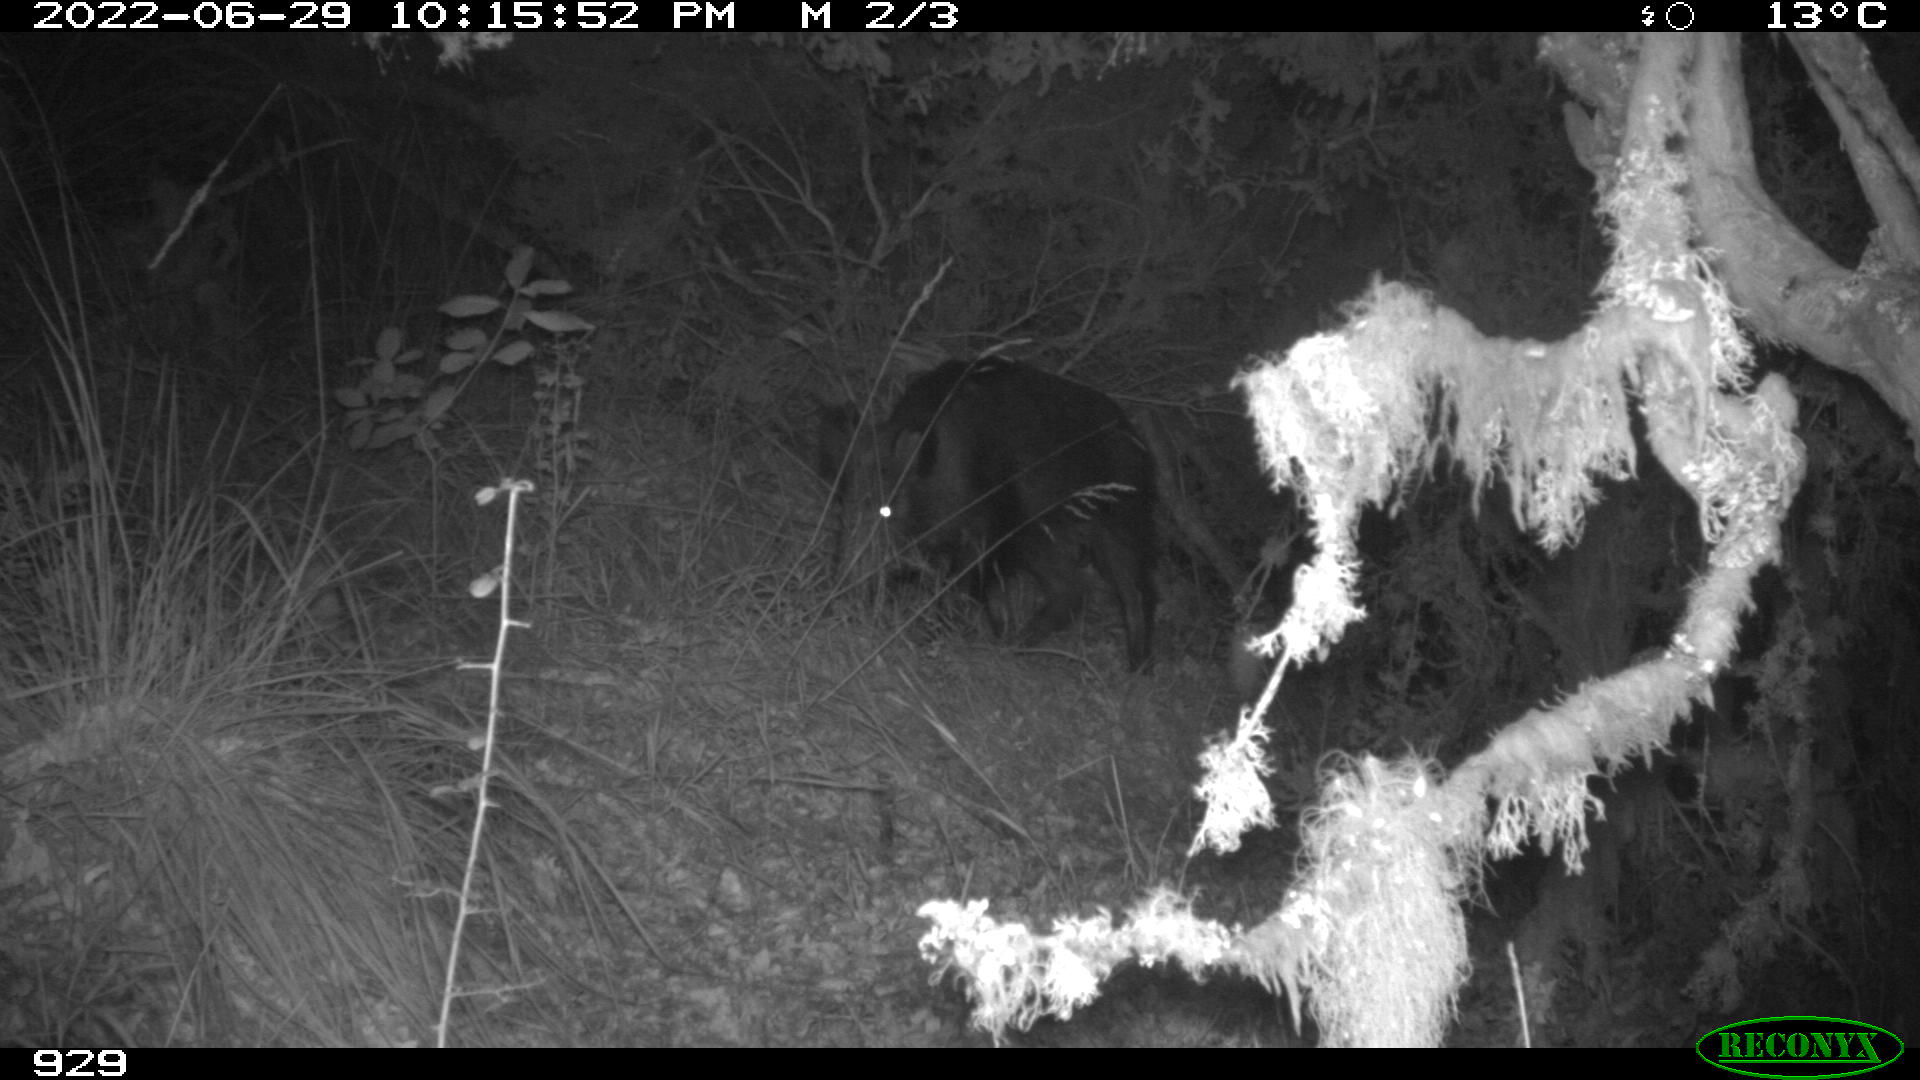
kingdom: Animalia
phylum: Chordata
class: Mammalia
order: Artiodactyla
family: Suidae
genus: Sus
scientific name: Sus scrofa
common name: Wild boar
